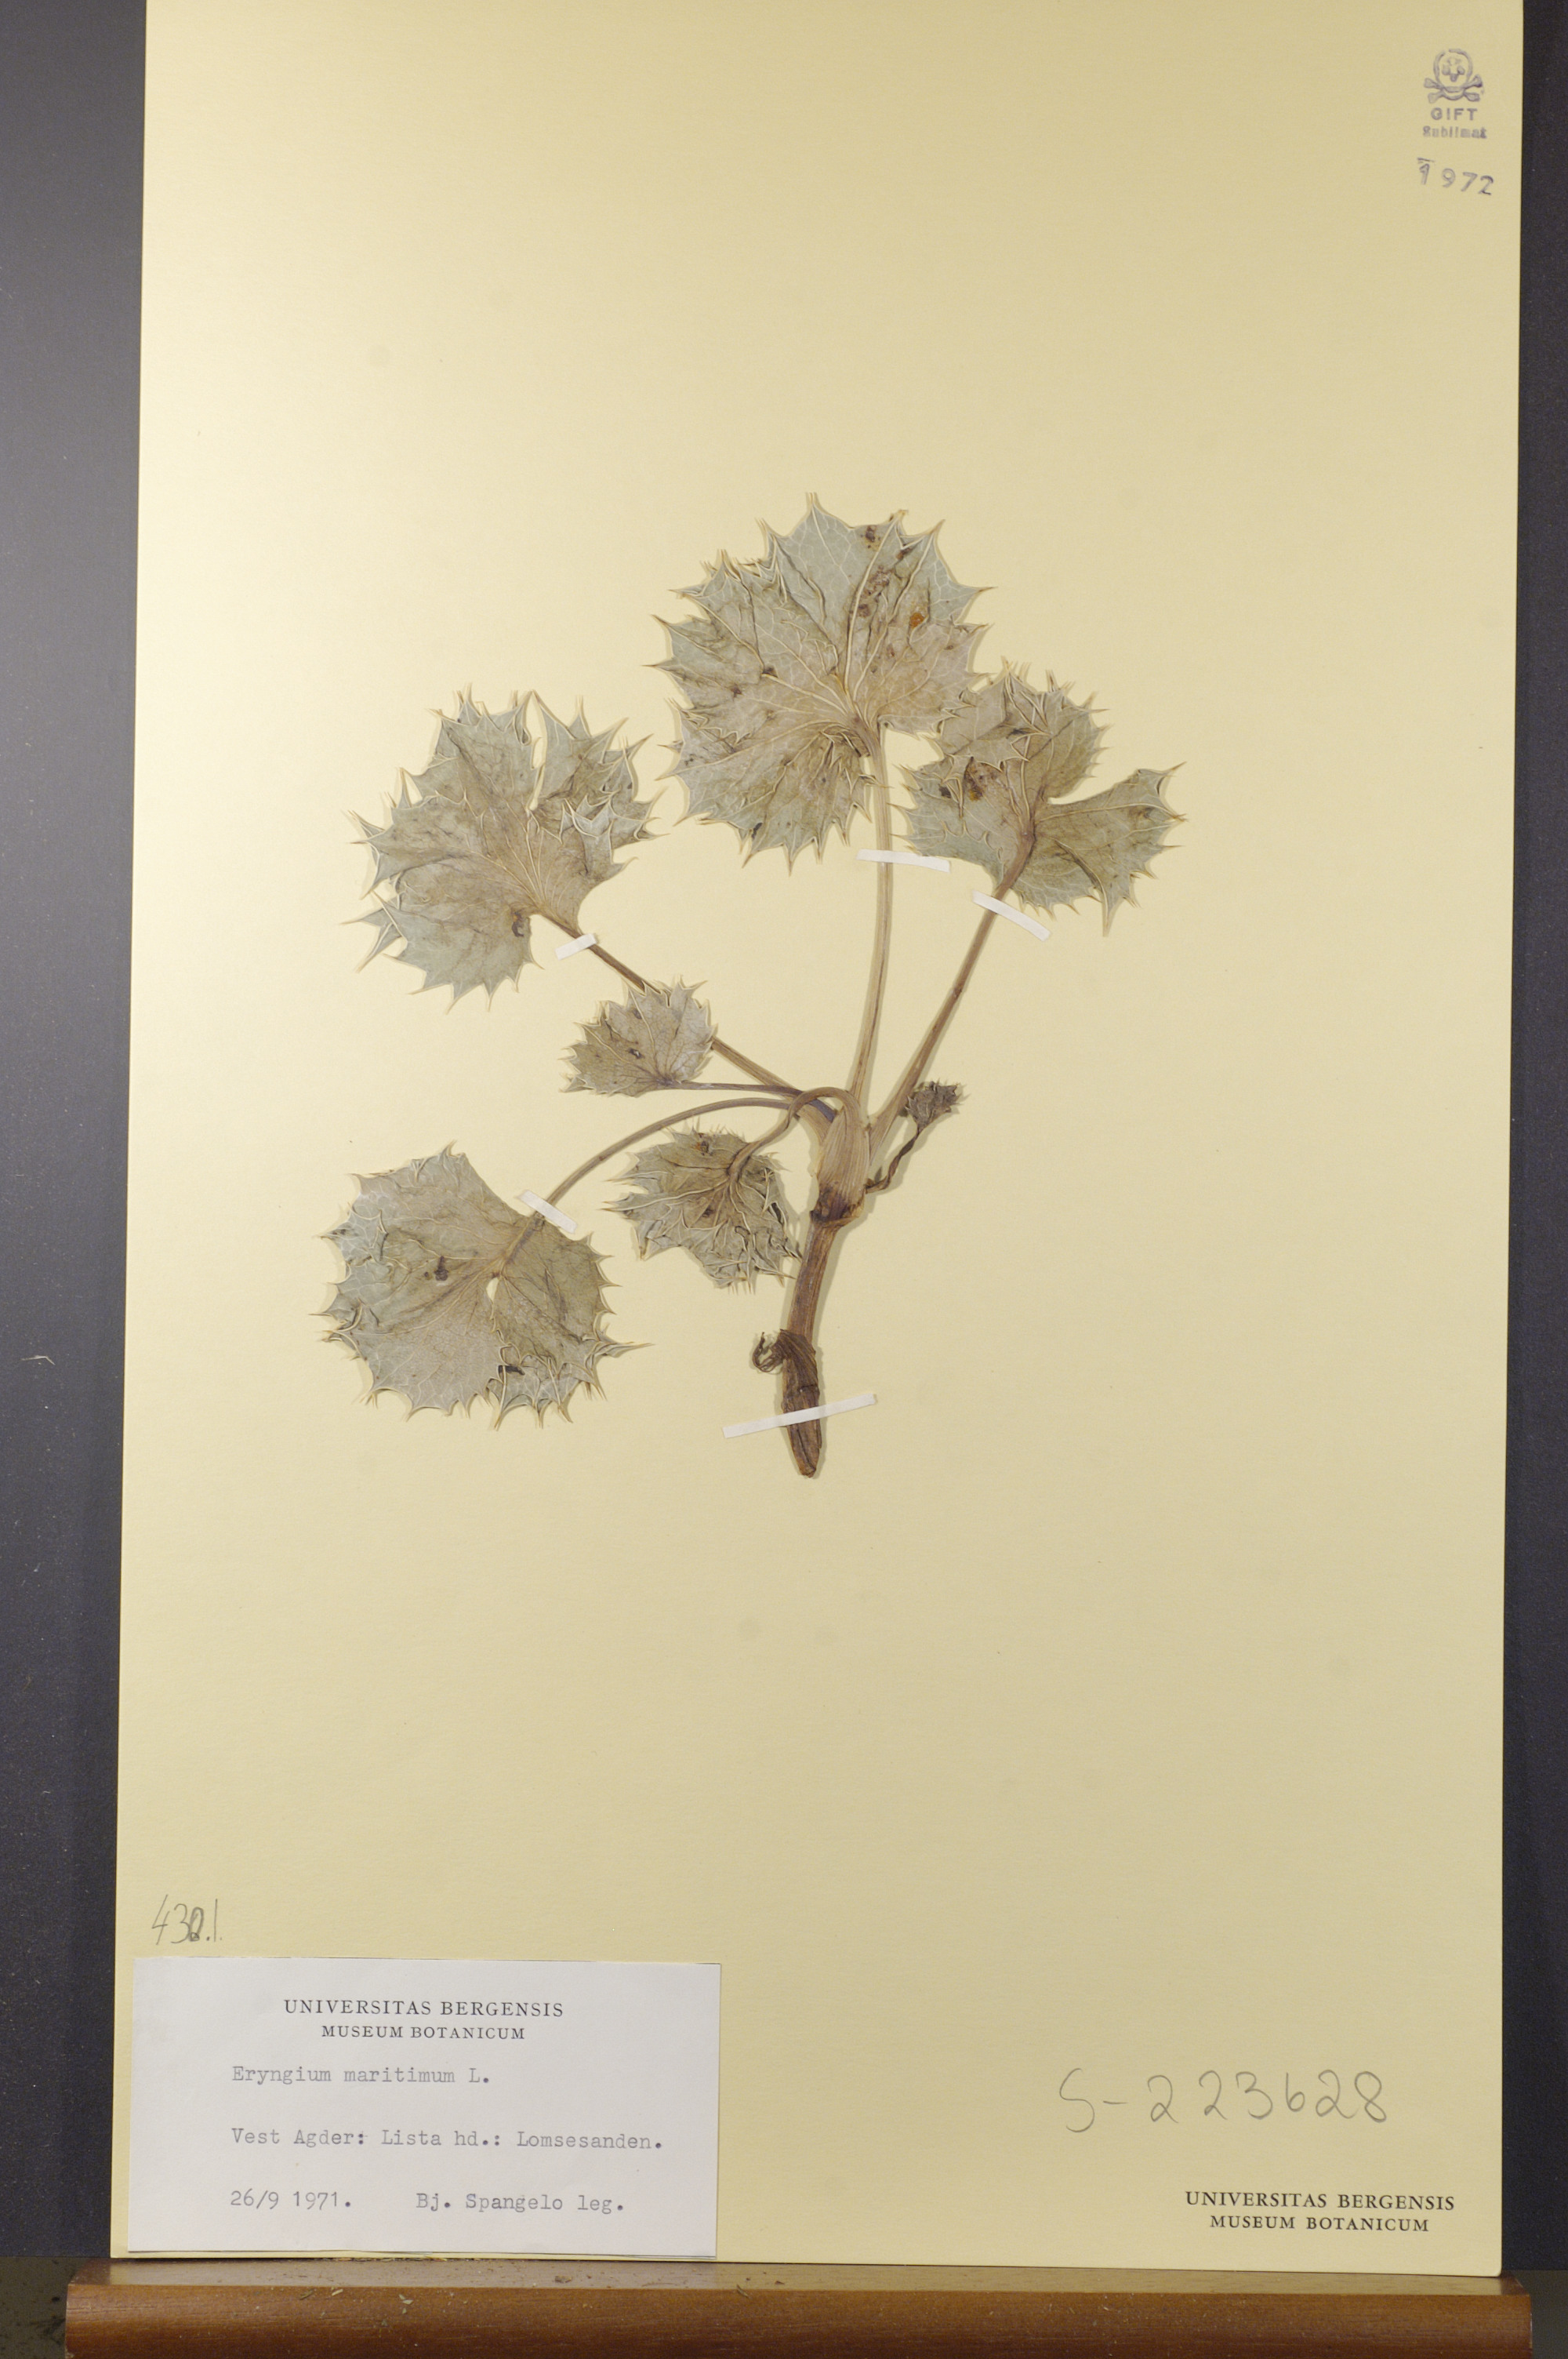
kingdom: Plantae
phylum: Tracheophyta
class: Magnoliopsida
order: Apiales
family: Apiaceae
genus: Eryngium
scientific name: Eryngium maritimum
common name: Sea-holly
